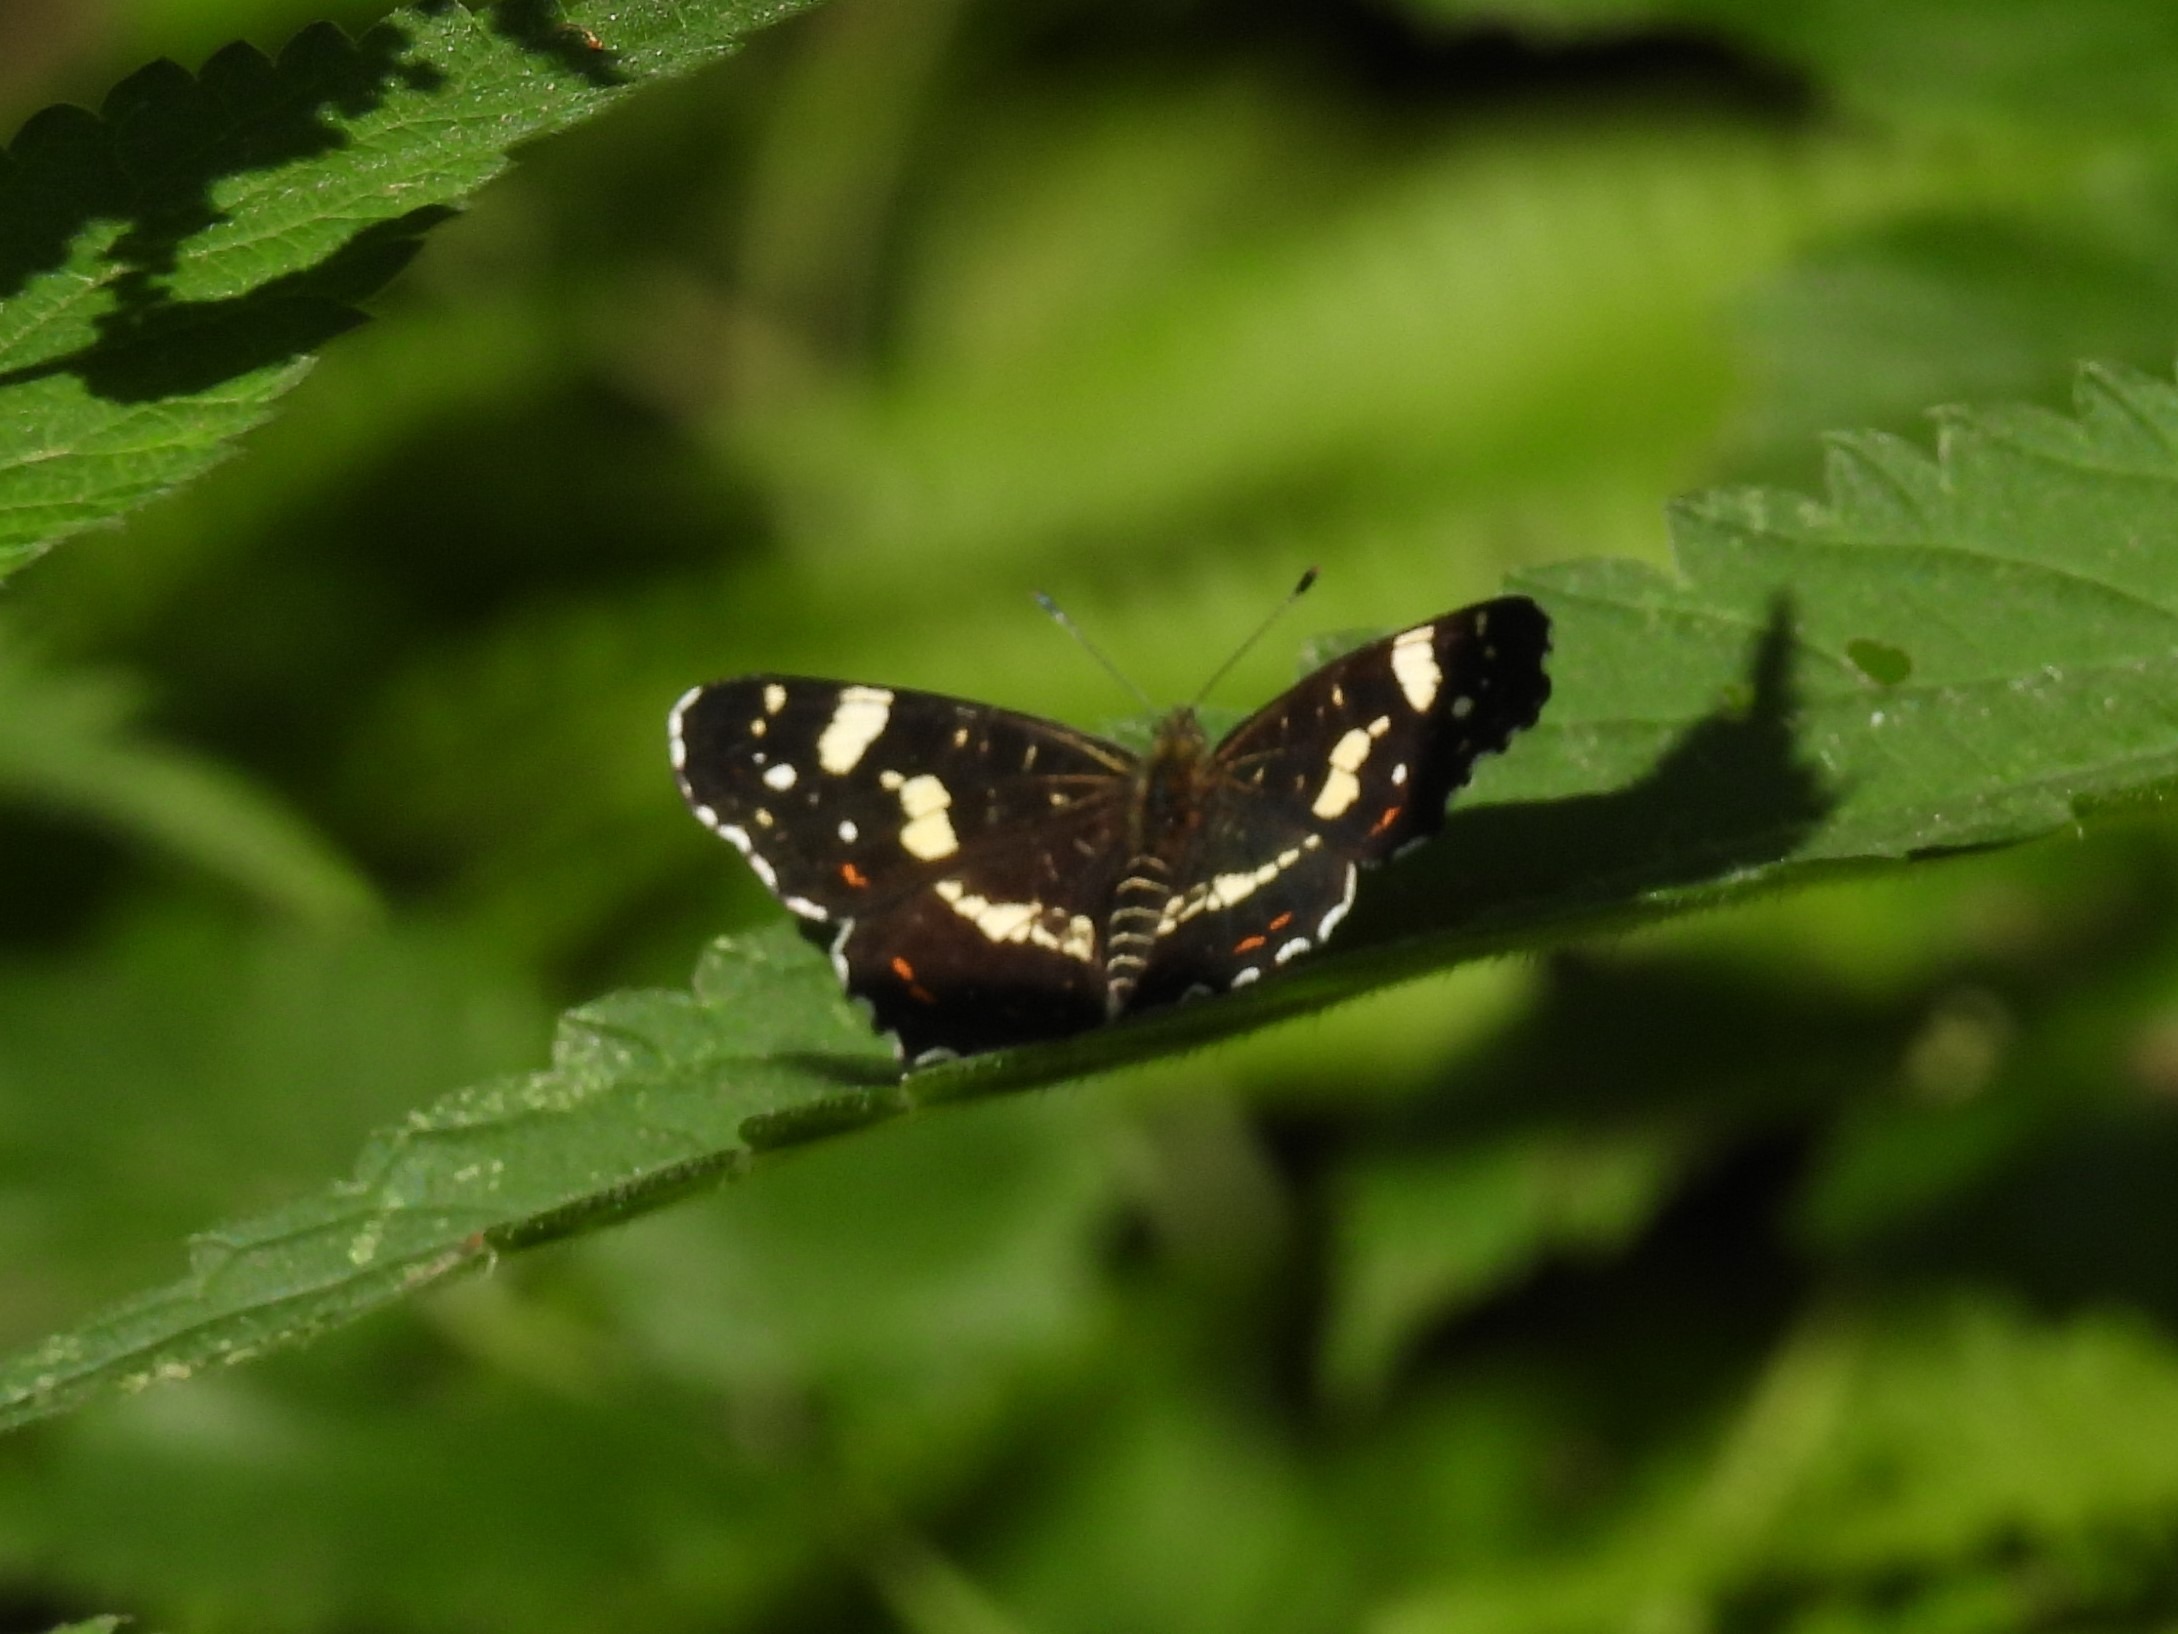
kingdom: Animalia
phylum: Arthropoda
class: Insecta
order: Lepidoptera
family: Nymphalidae
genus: Araschnia
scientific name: Araschnia levana
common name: Nældesommerfugl
